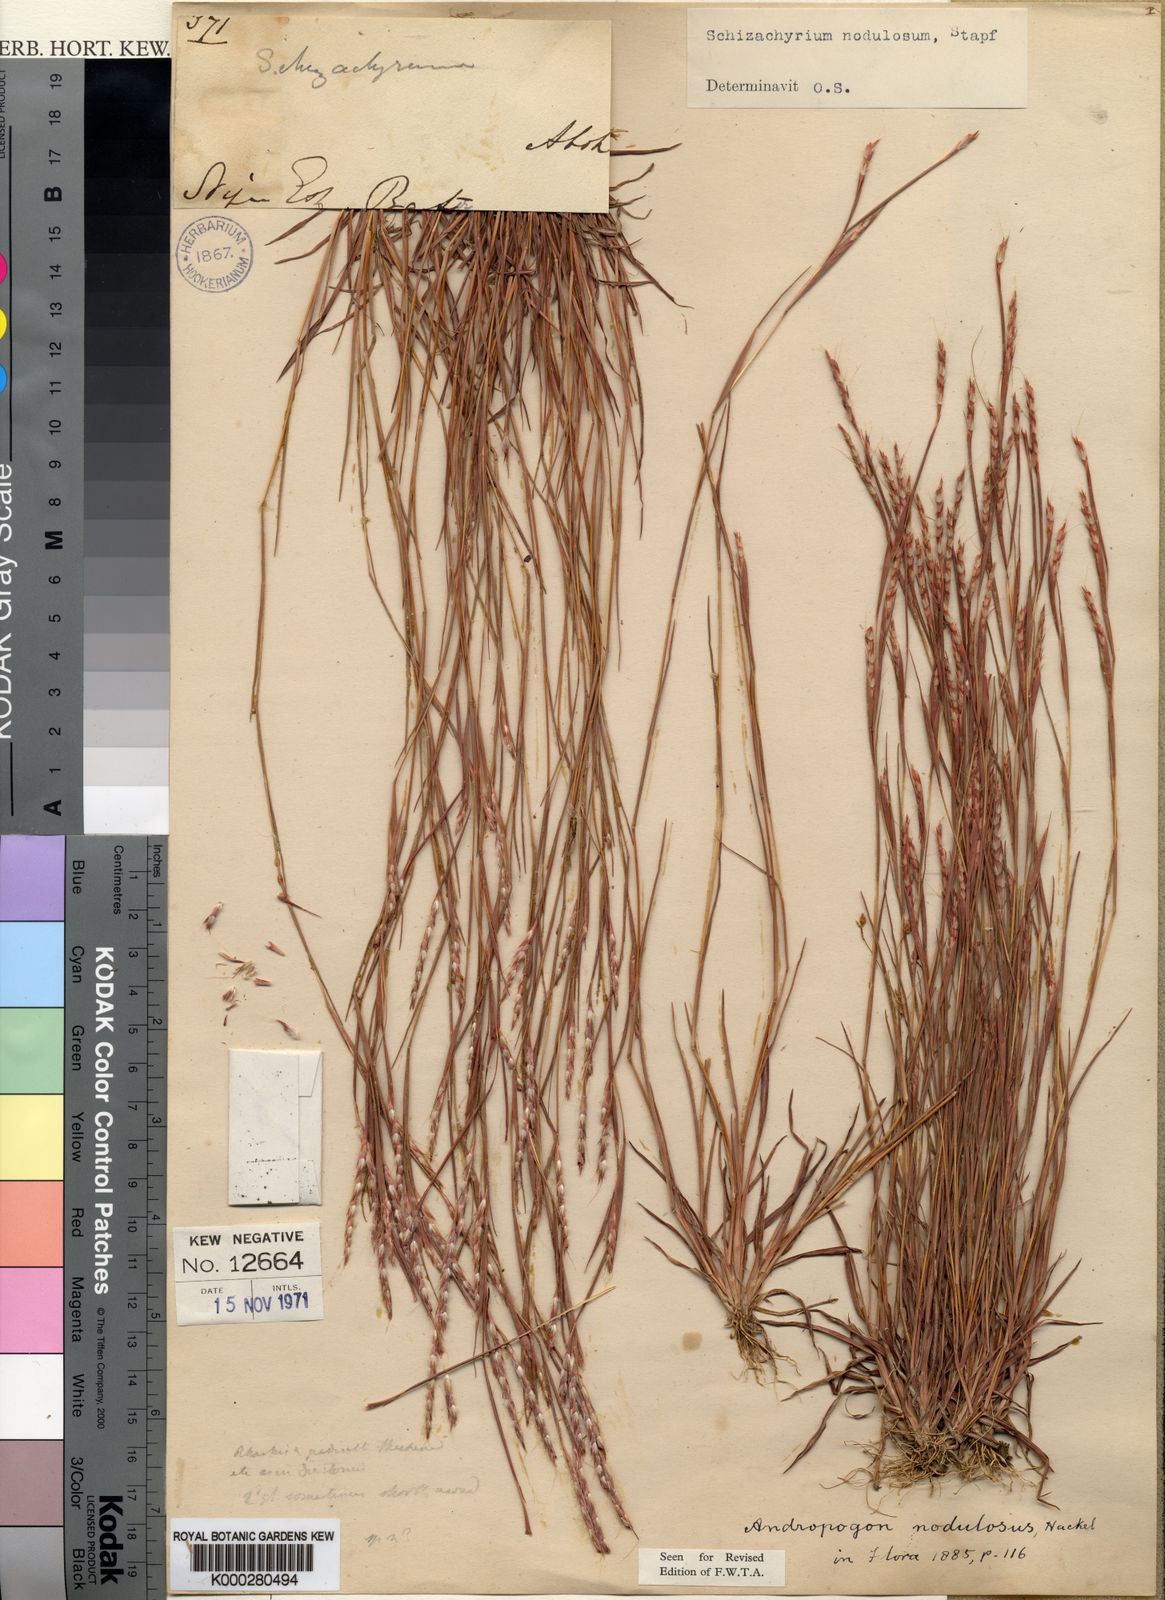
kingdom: Plantae
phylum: Tracheophyta
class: Liliopsida
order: Poales
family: Poaceae
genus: Schizachyrium
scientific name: Schizachyrium nodulosum
